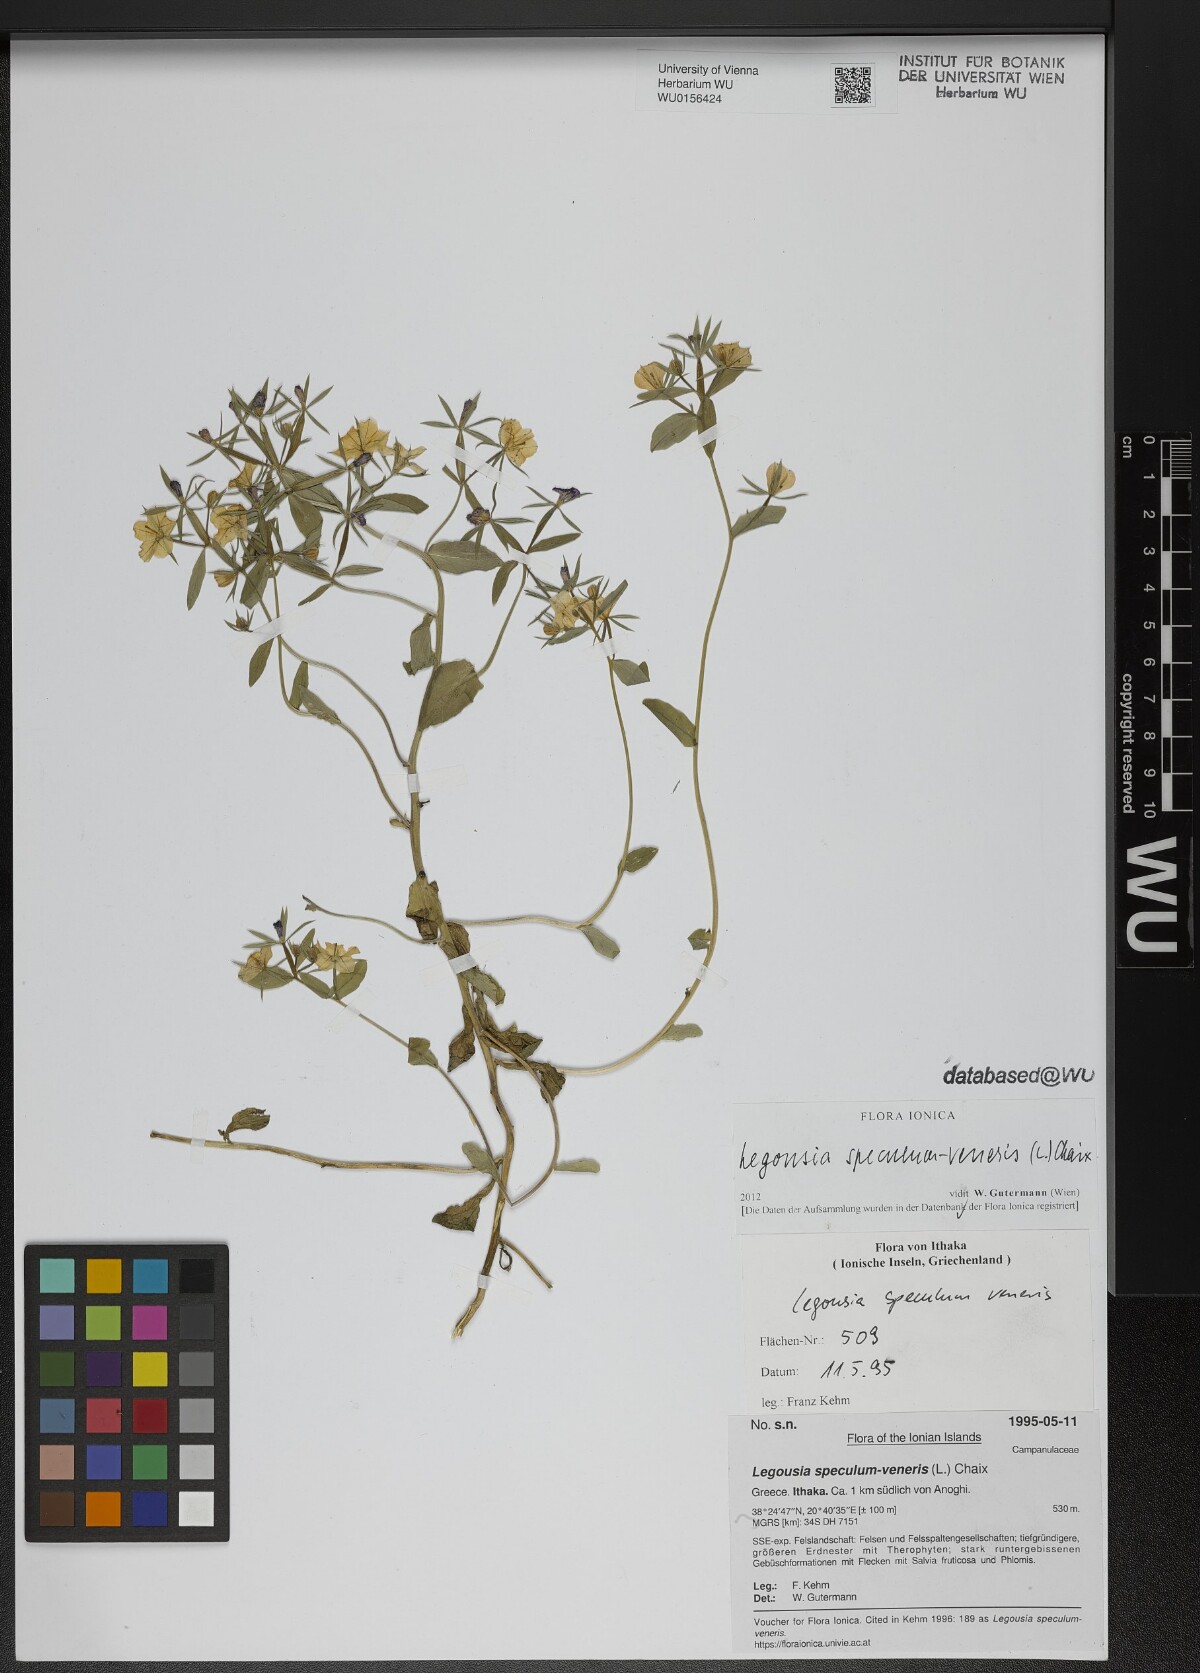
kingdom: Plantae
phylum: Tracheophyta
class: Magnoliopsida
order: Asterales
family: Campanulaceae
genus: Legousia
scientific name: Legousia speculum-veneris
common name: Large venus's-looking-glass
